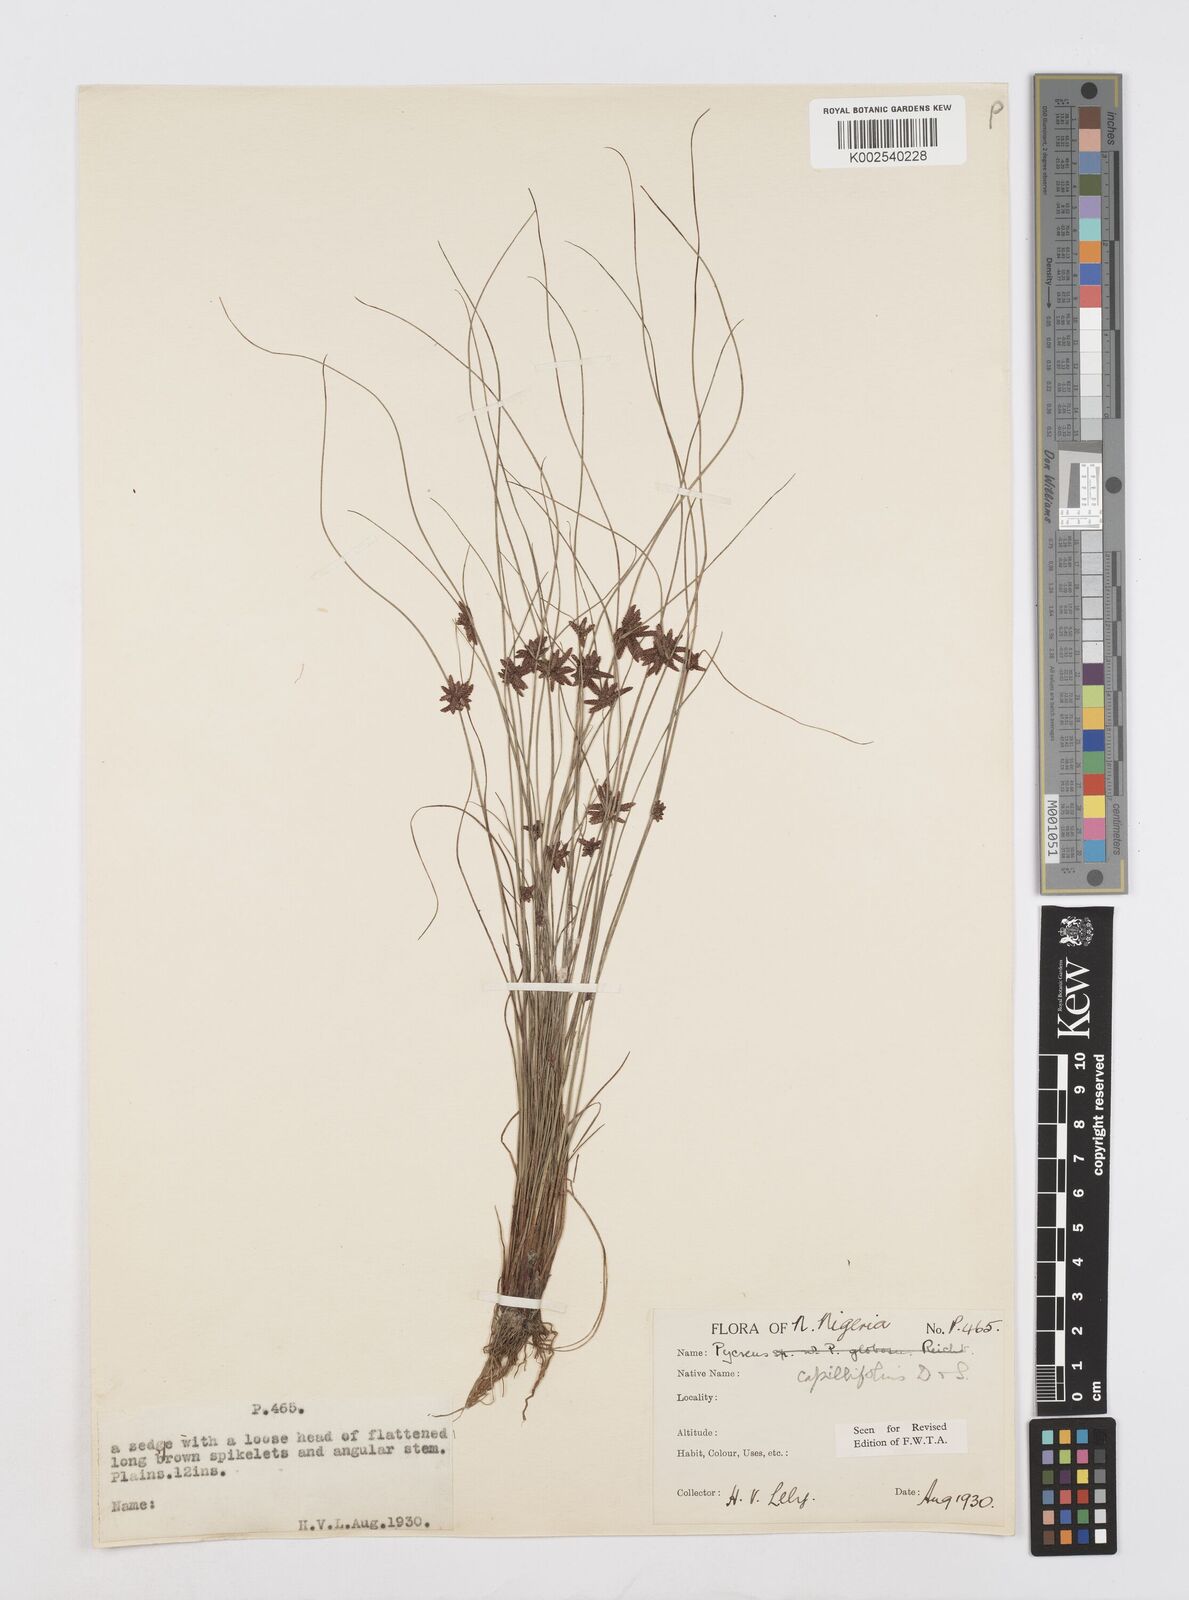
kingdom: Plantae
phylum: Tracheophyta
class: Liliopsida
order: Poales
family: Cyperaceae
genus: Cyperus
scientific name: Cyperus capillifolius
